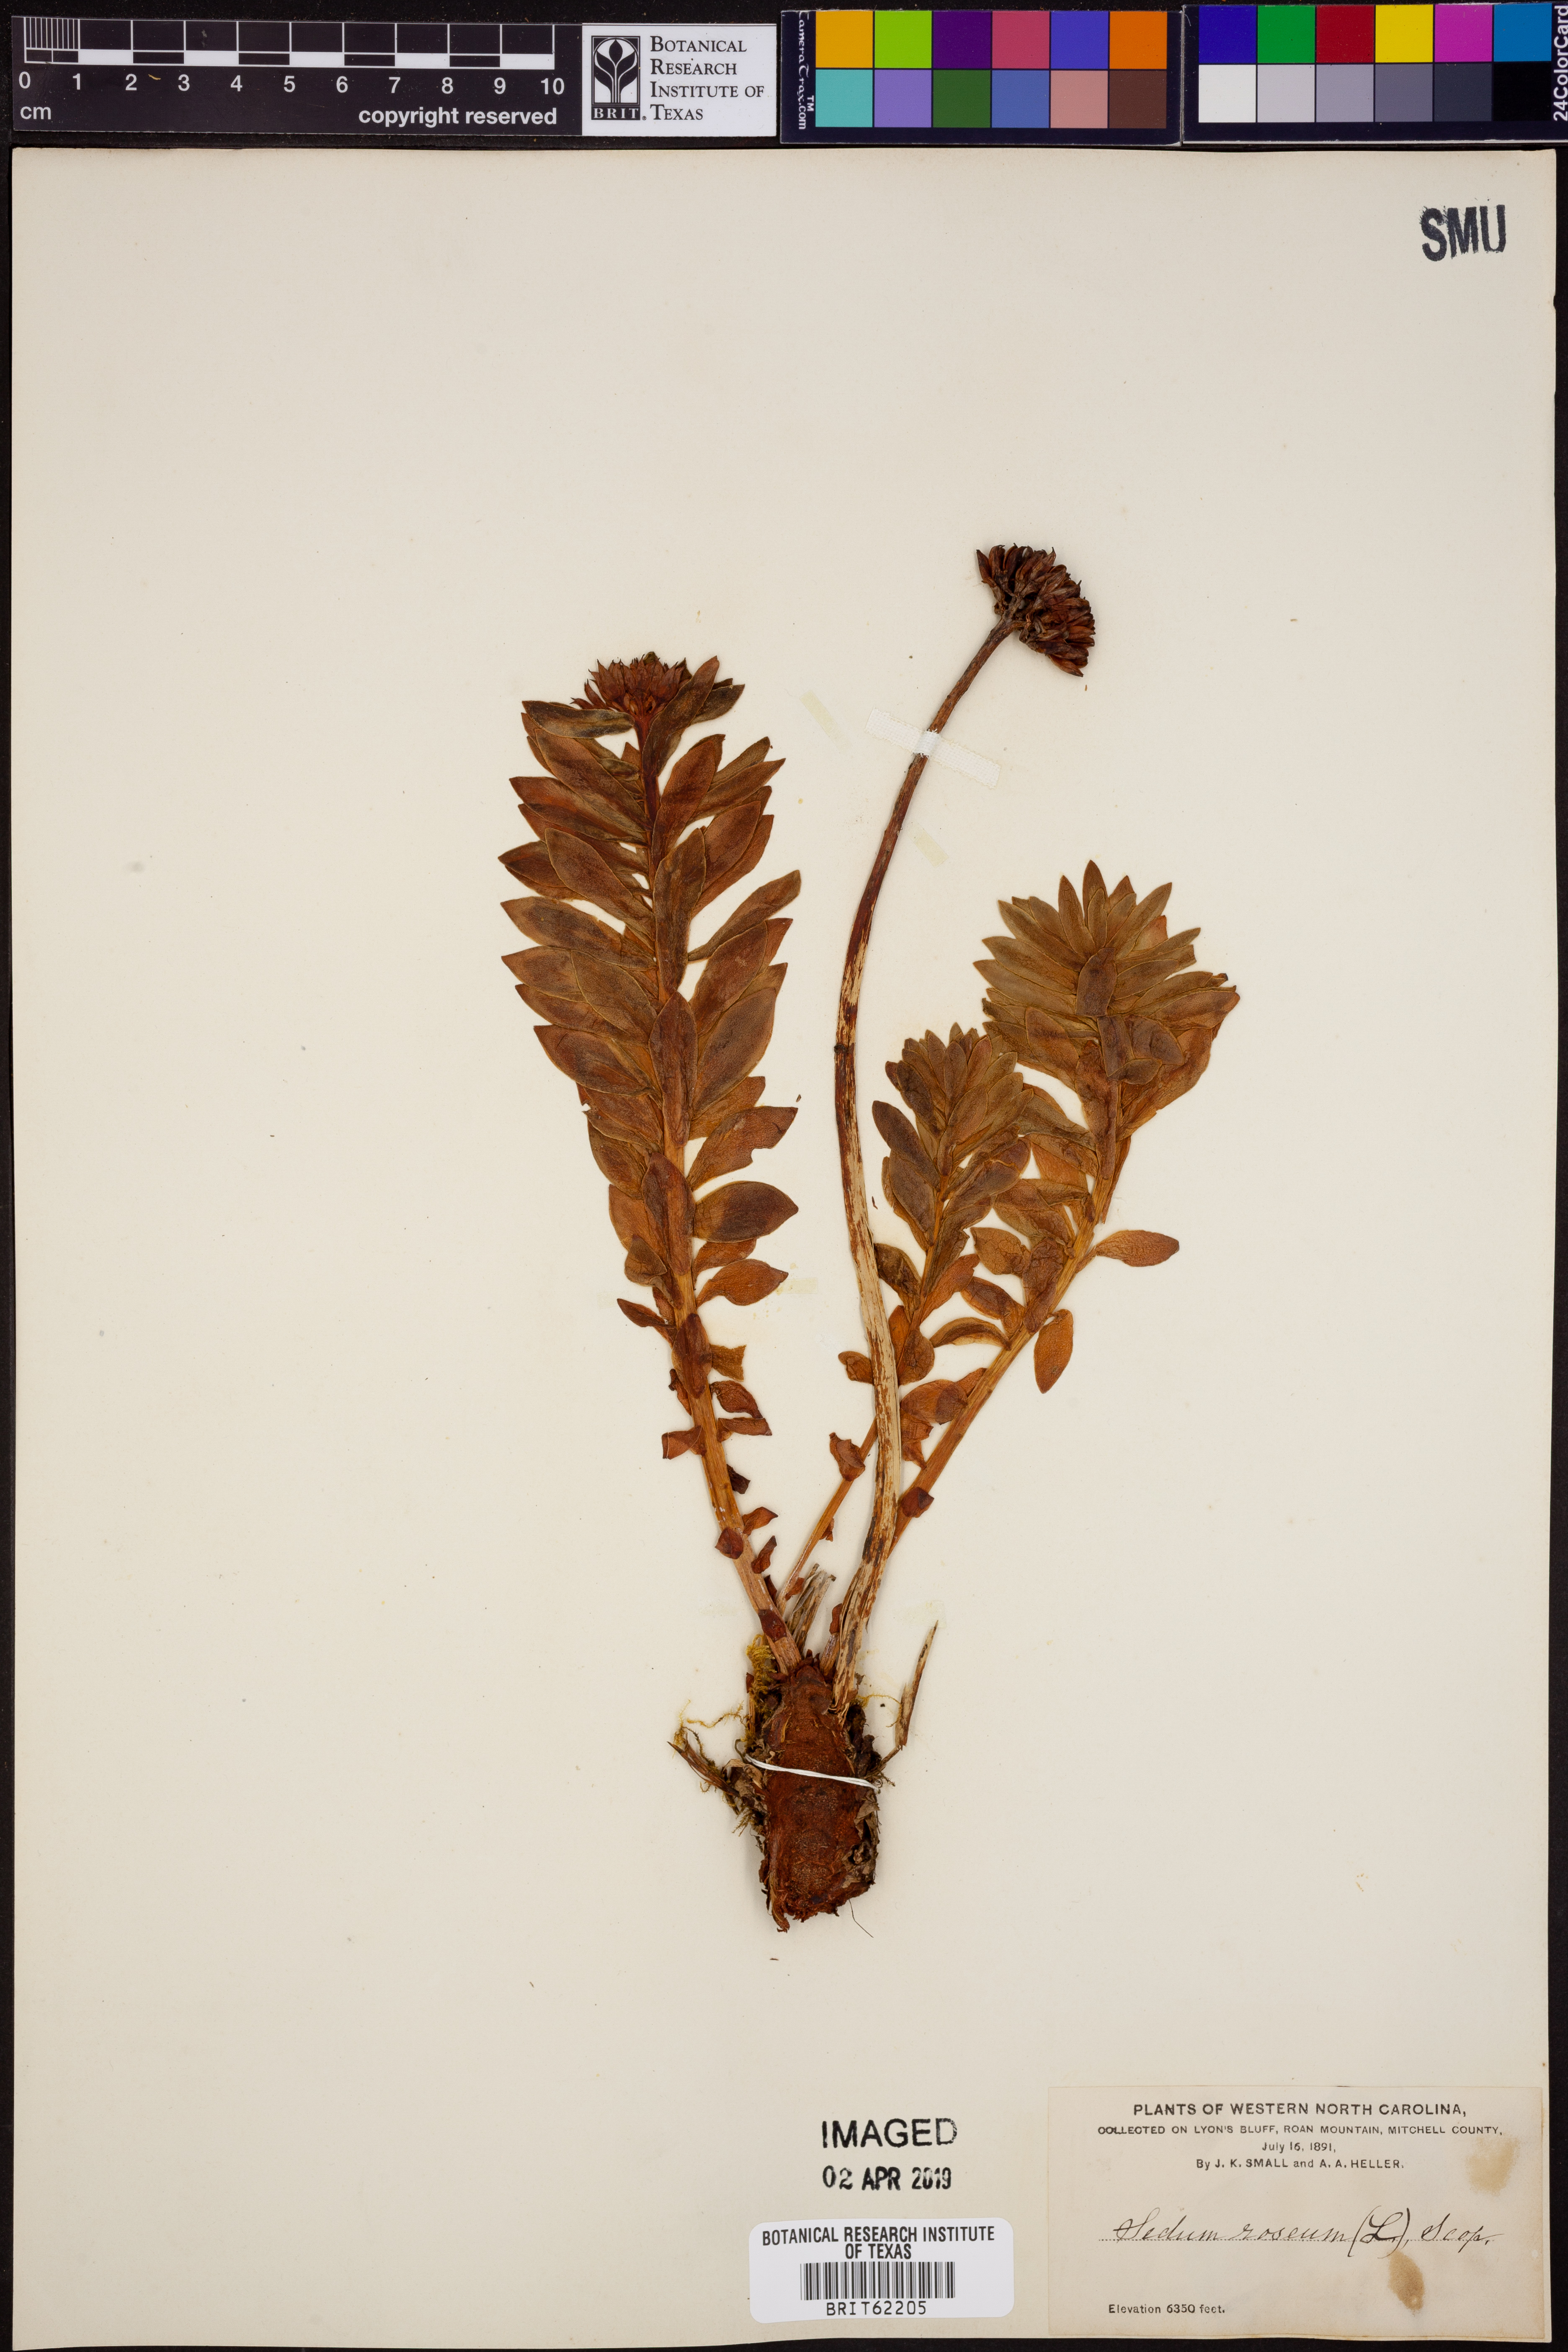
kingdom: Plantae
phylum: Tracheophyta
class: Magnoliopsida
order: Saxifragales
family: Crassulaceae
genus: Rhodiola
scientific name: Rhodiola rosea
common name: Roseroot
